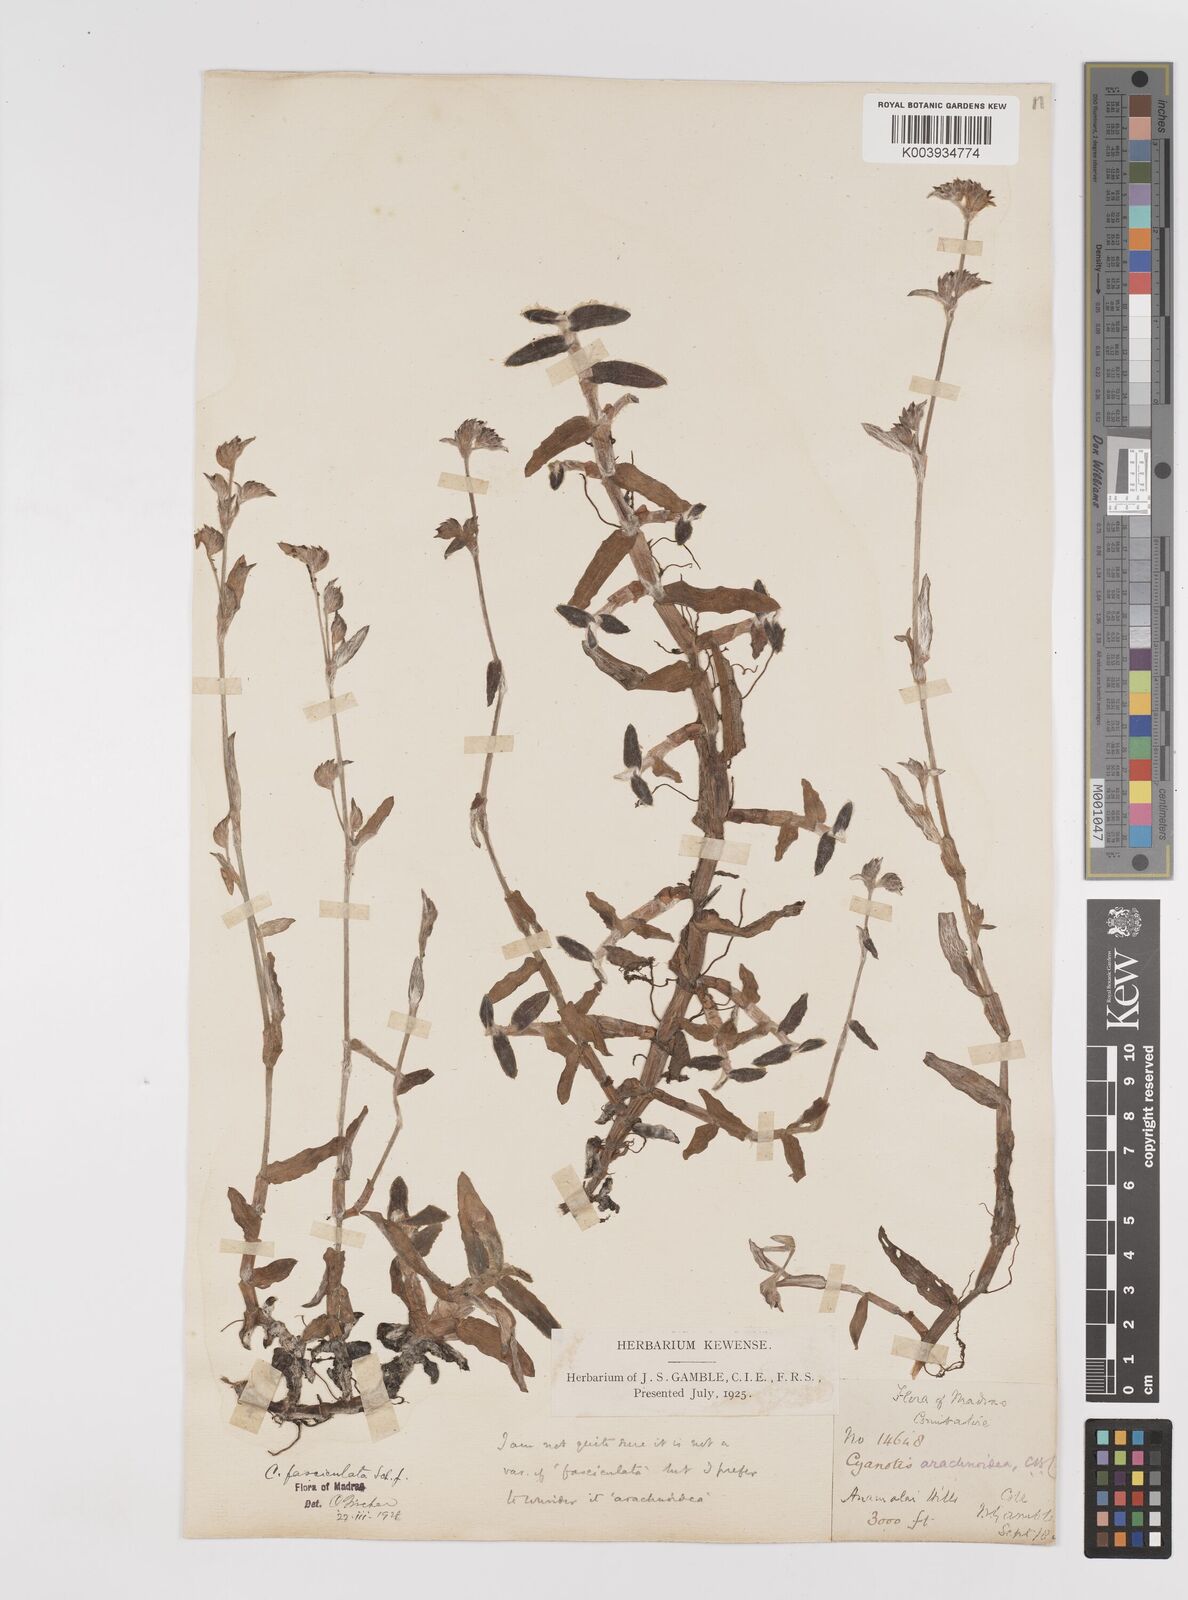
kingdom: Plantae
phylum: Tracheophyta
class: Liliopsida
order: Commelinales
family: Commelinaceae
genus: Cyanotis
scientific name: Cyanotis fasciculata
